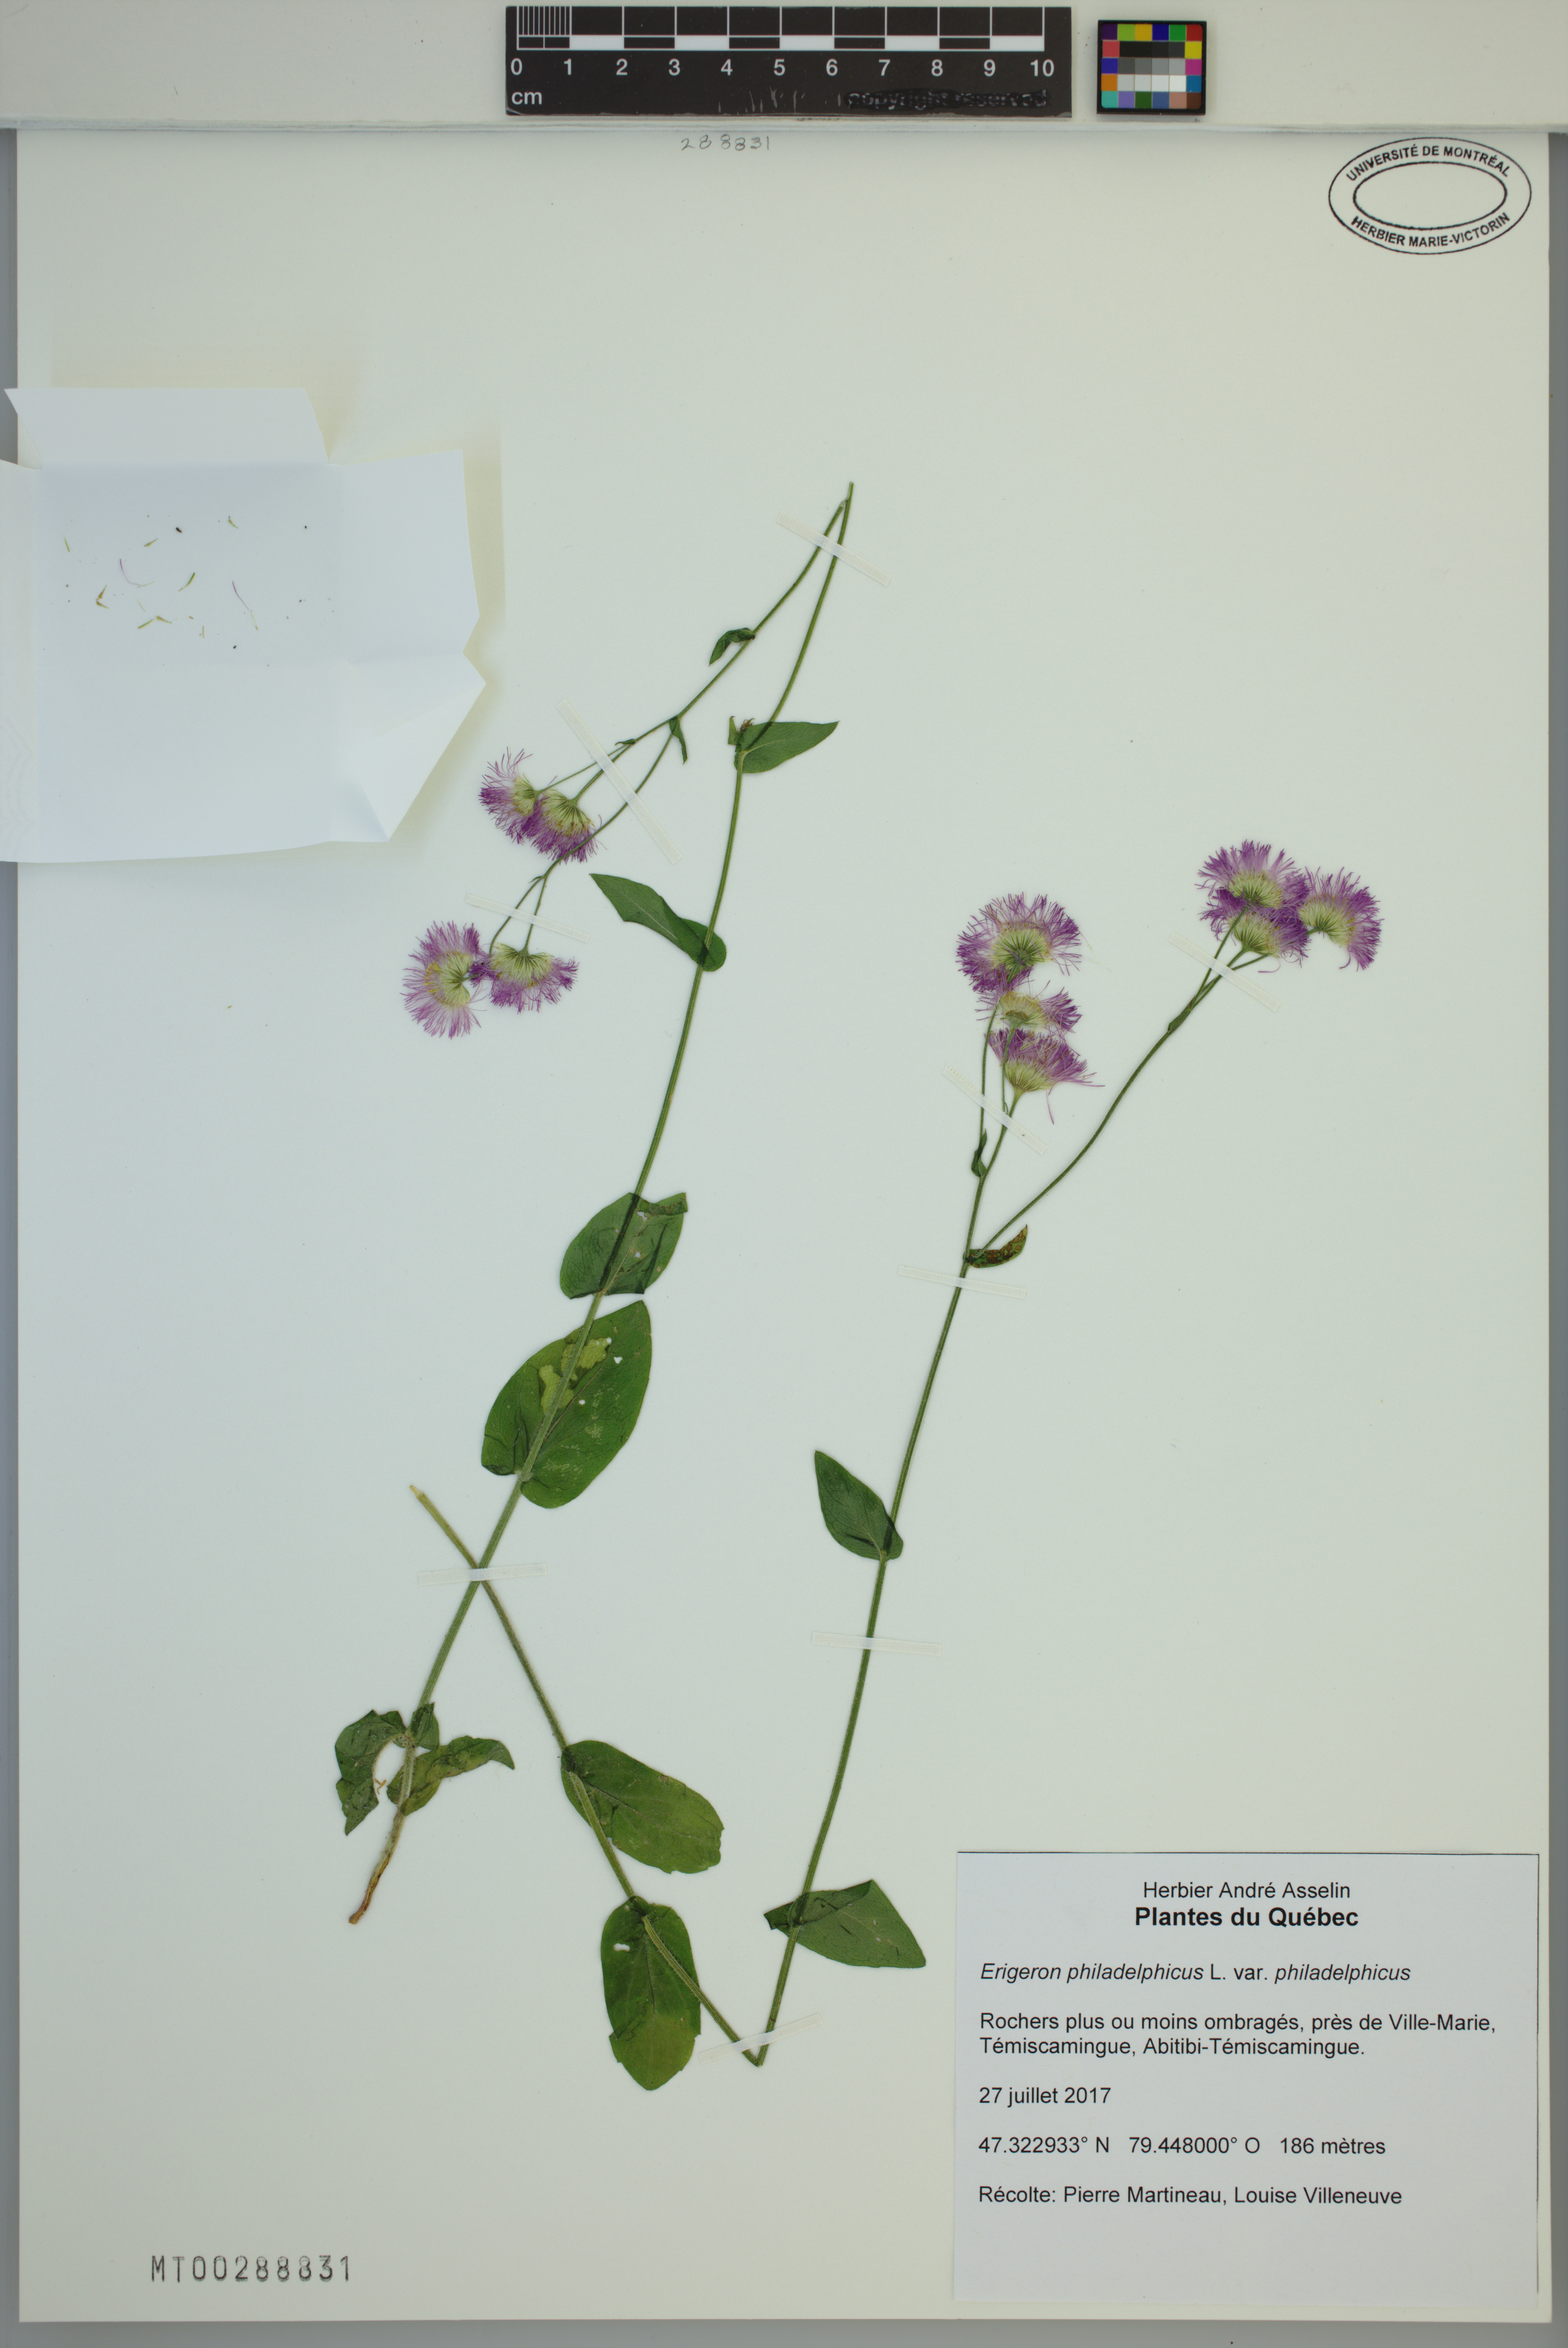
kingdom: Plantae
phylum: Tracheophyta
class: Magnoliopsida
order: Asterales
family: Asteraceae
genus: Erigeron
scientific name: Erigeron philadelphicus
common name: Robin's-plantain
